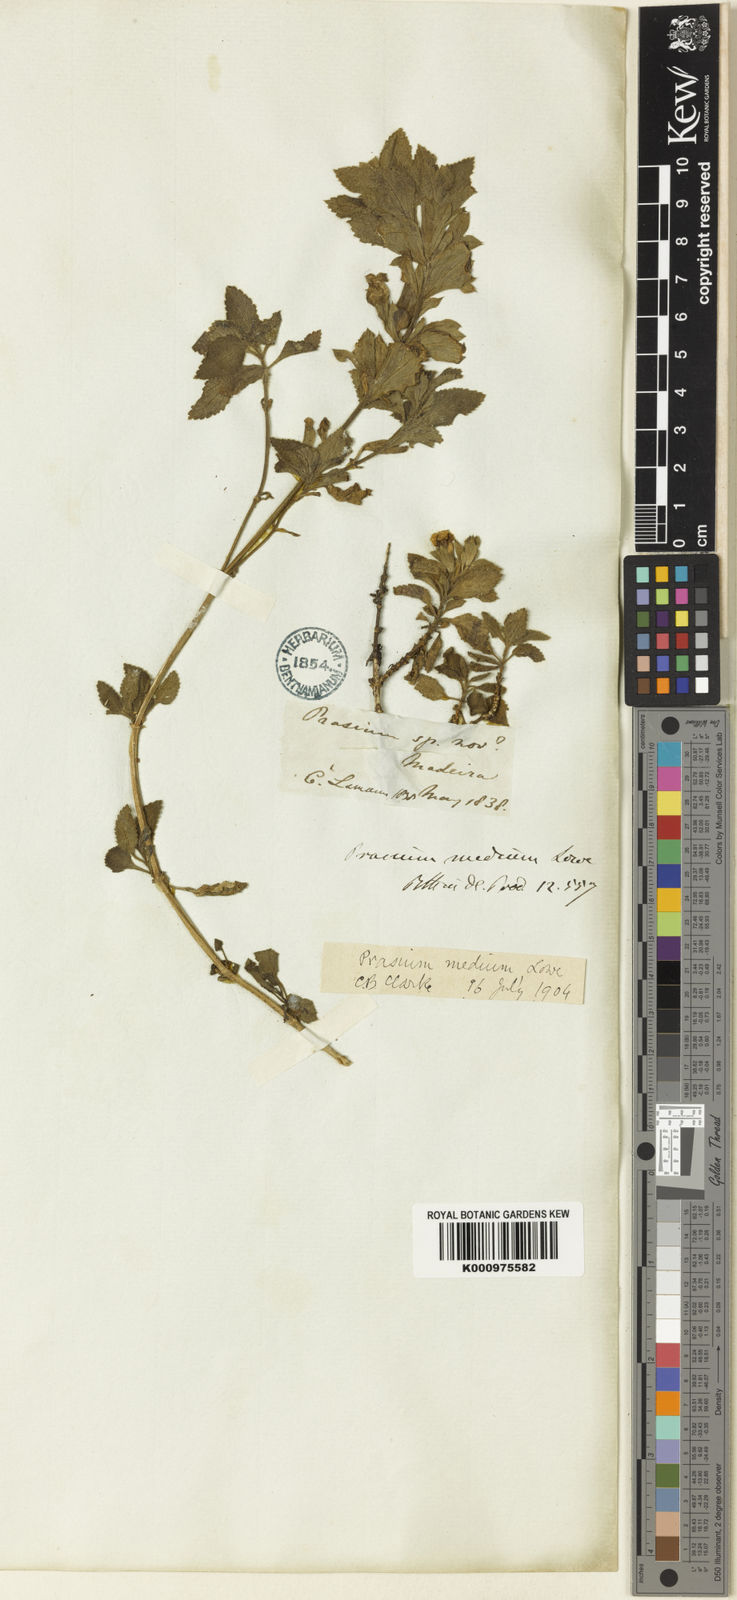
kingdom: Plantae
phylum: Tracheophyta
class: Magnoliopsida
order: Lamiales
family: Lamiaceae
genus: Prasium
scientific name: Prasium majus
